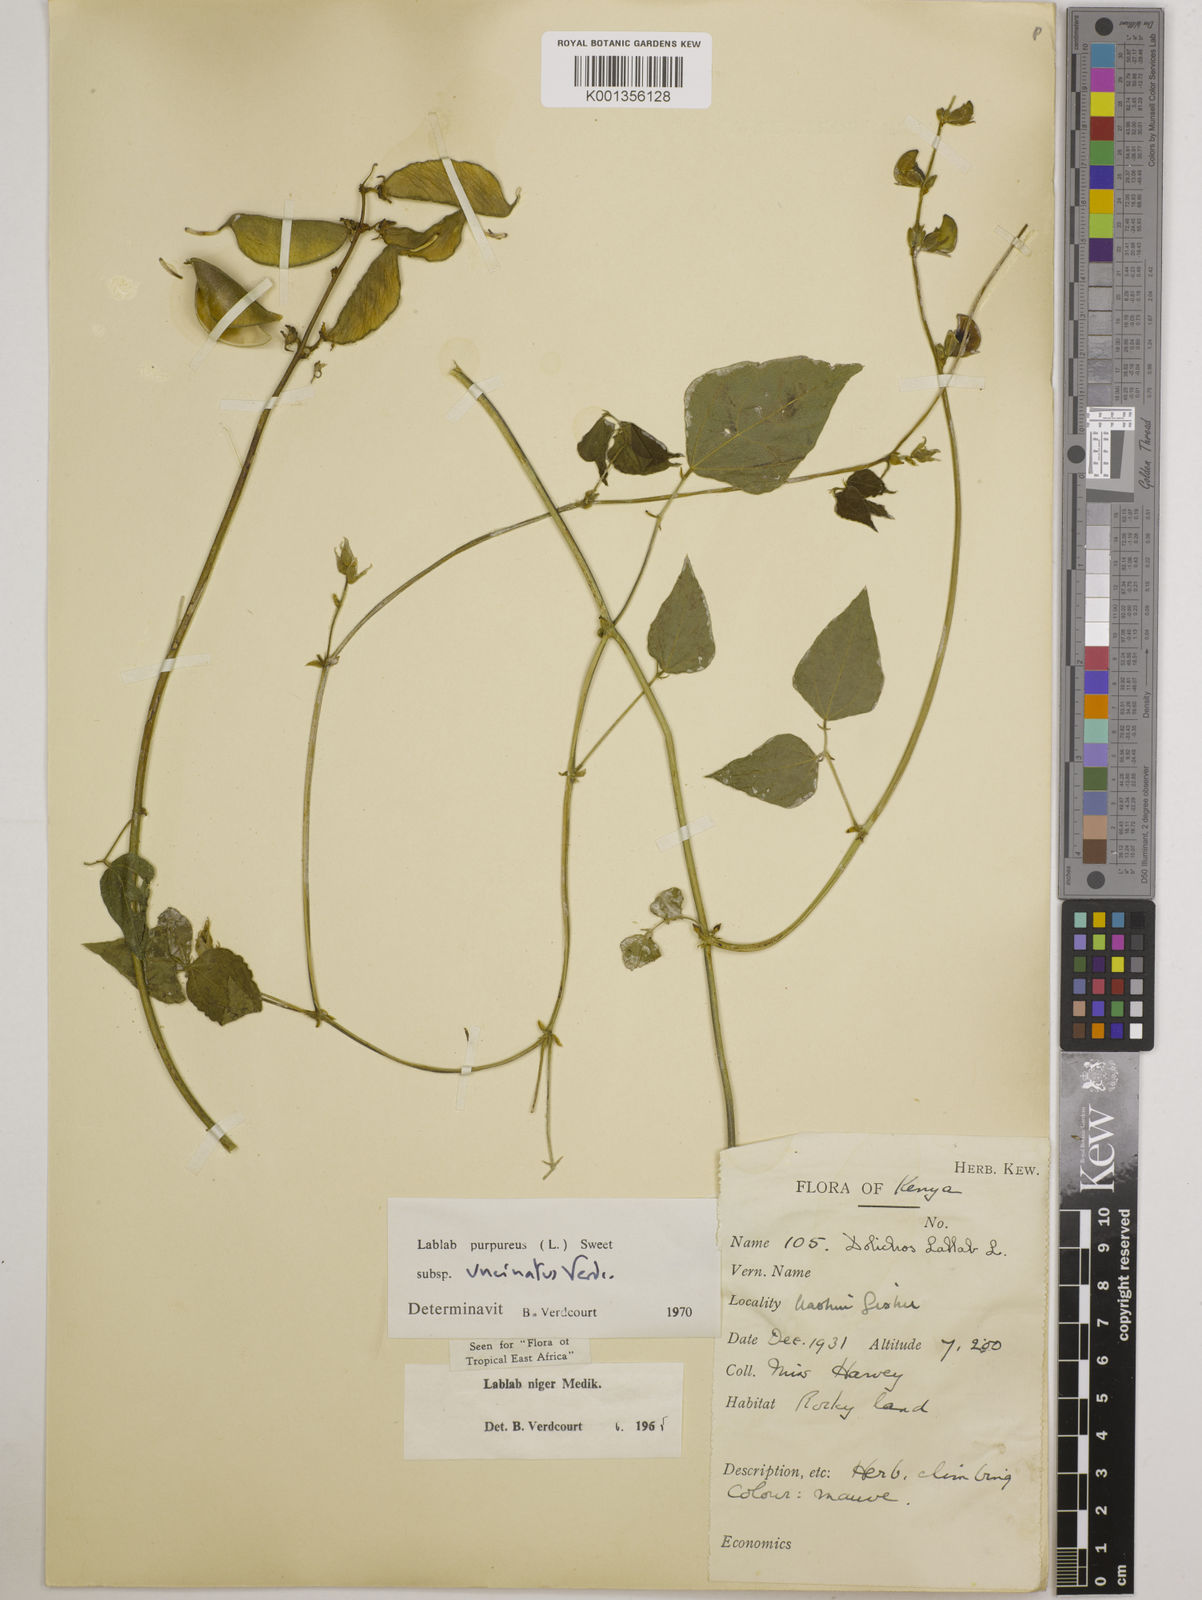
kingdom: Plantae
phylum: Tracheophyta
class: Magnoliopsida
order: Fabales
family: Fabaceae
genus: Lablab
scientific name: Lablab purpureus
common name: Lablab-bean
